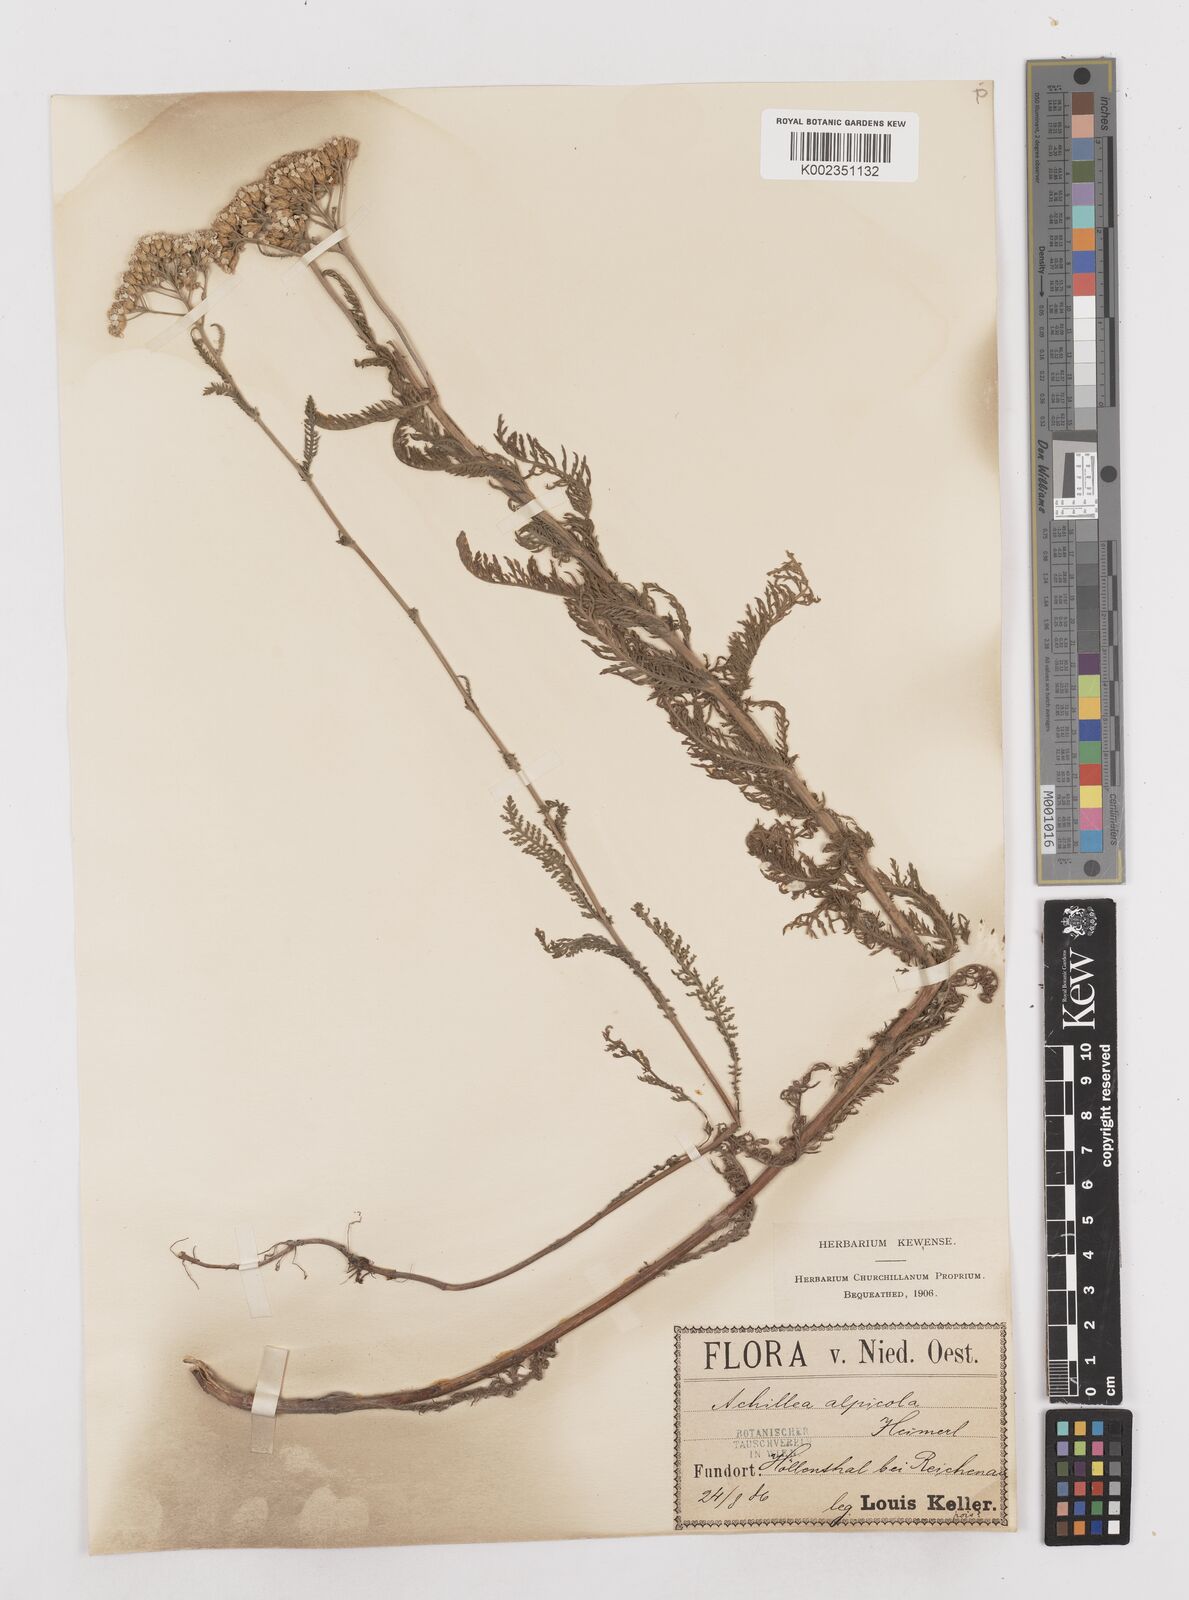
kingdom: Plantae
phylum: Tracheophyta
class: Magnoliopsida
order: Asterales
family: Asteraceae
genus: Achillea
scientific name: Achillea millefolium
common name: Yarrow
